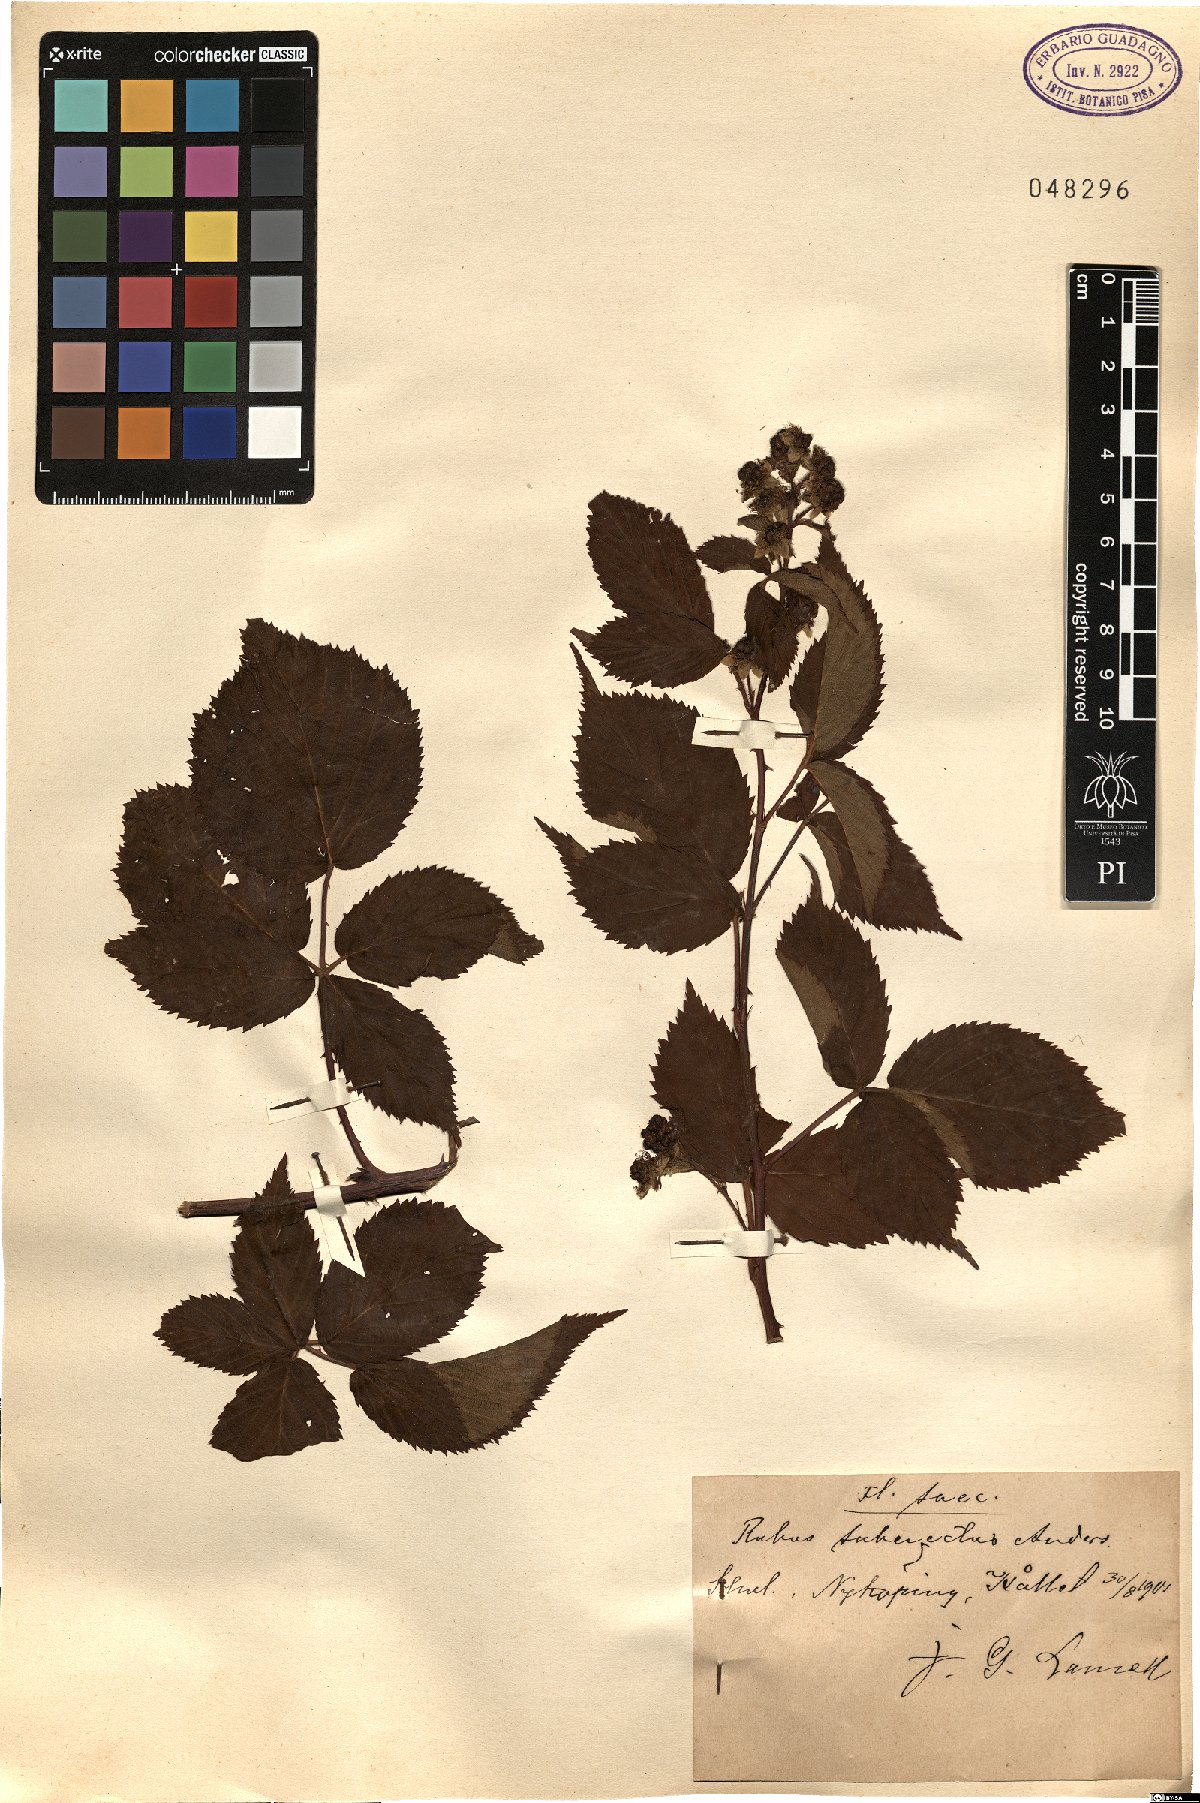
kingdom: Plantae
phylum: Tracheophyta
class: Magnoliopsida
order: Rosales
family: Rosaceae
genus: Rubus
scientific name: Rubus polonicus
